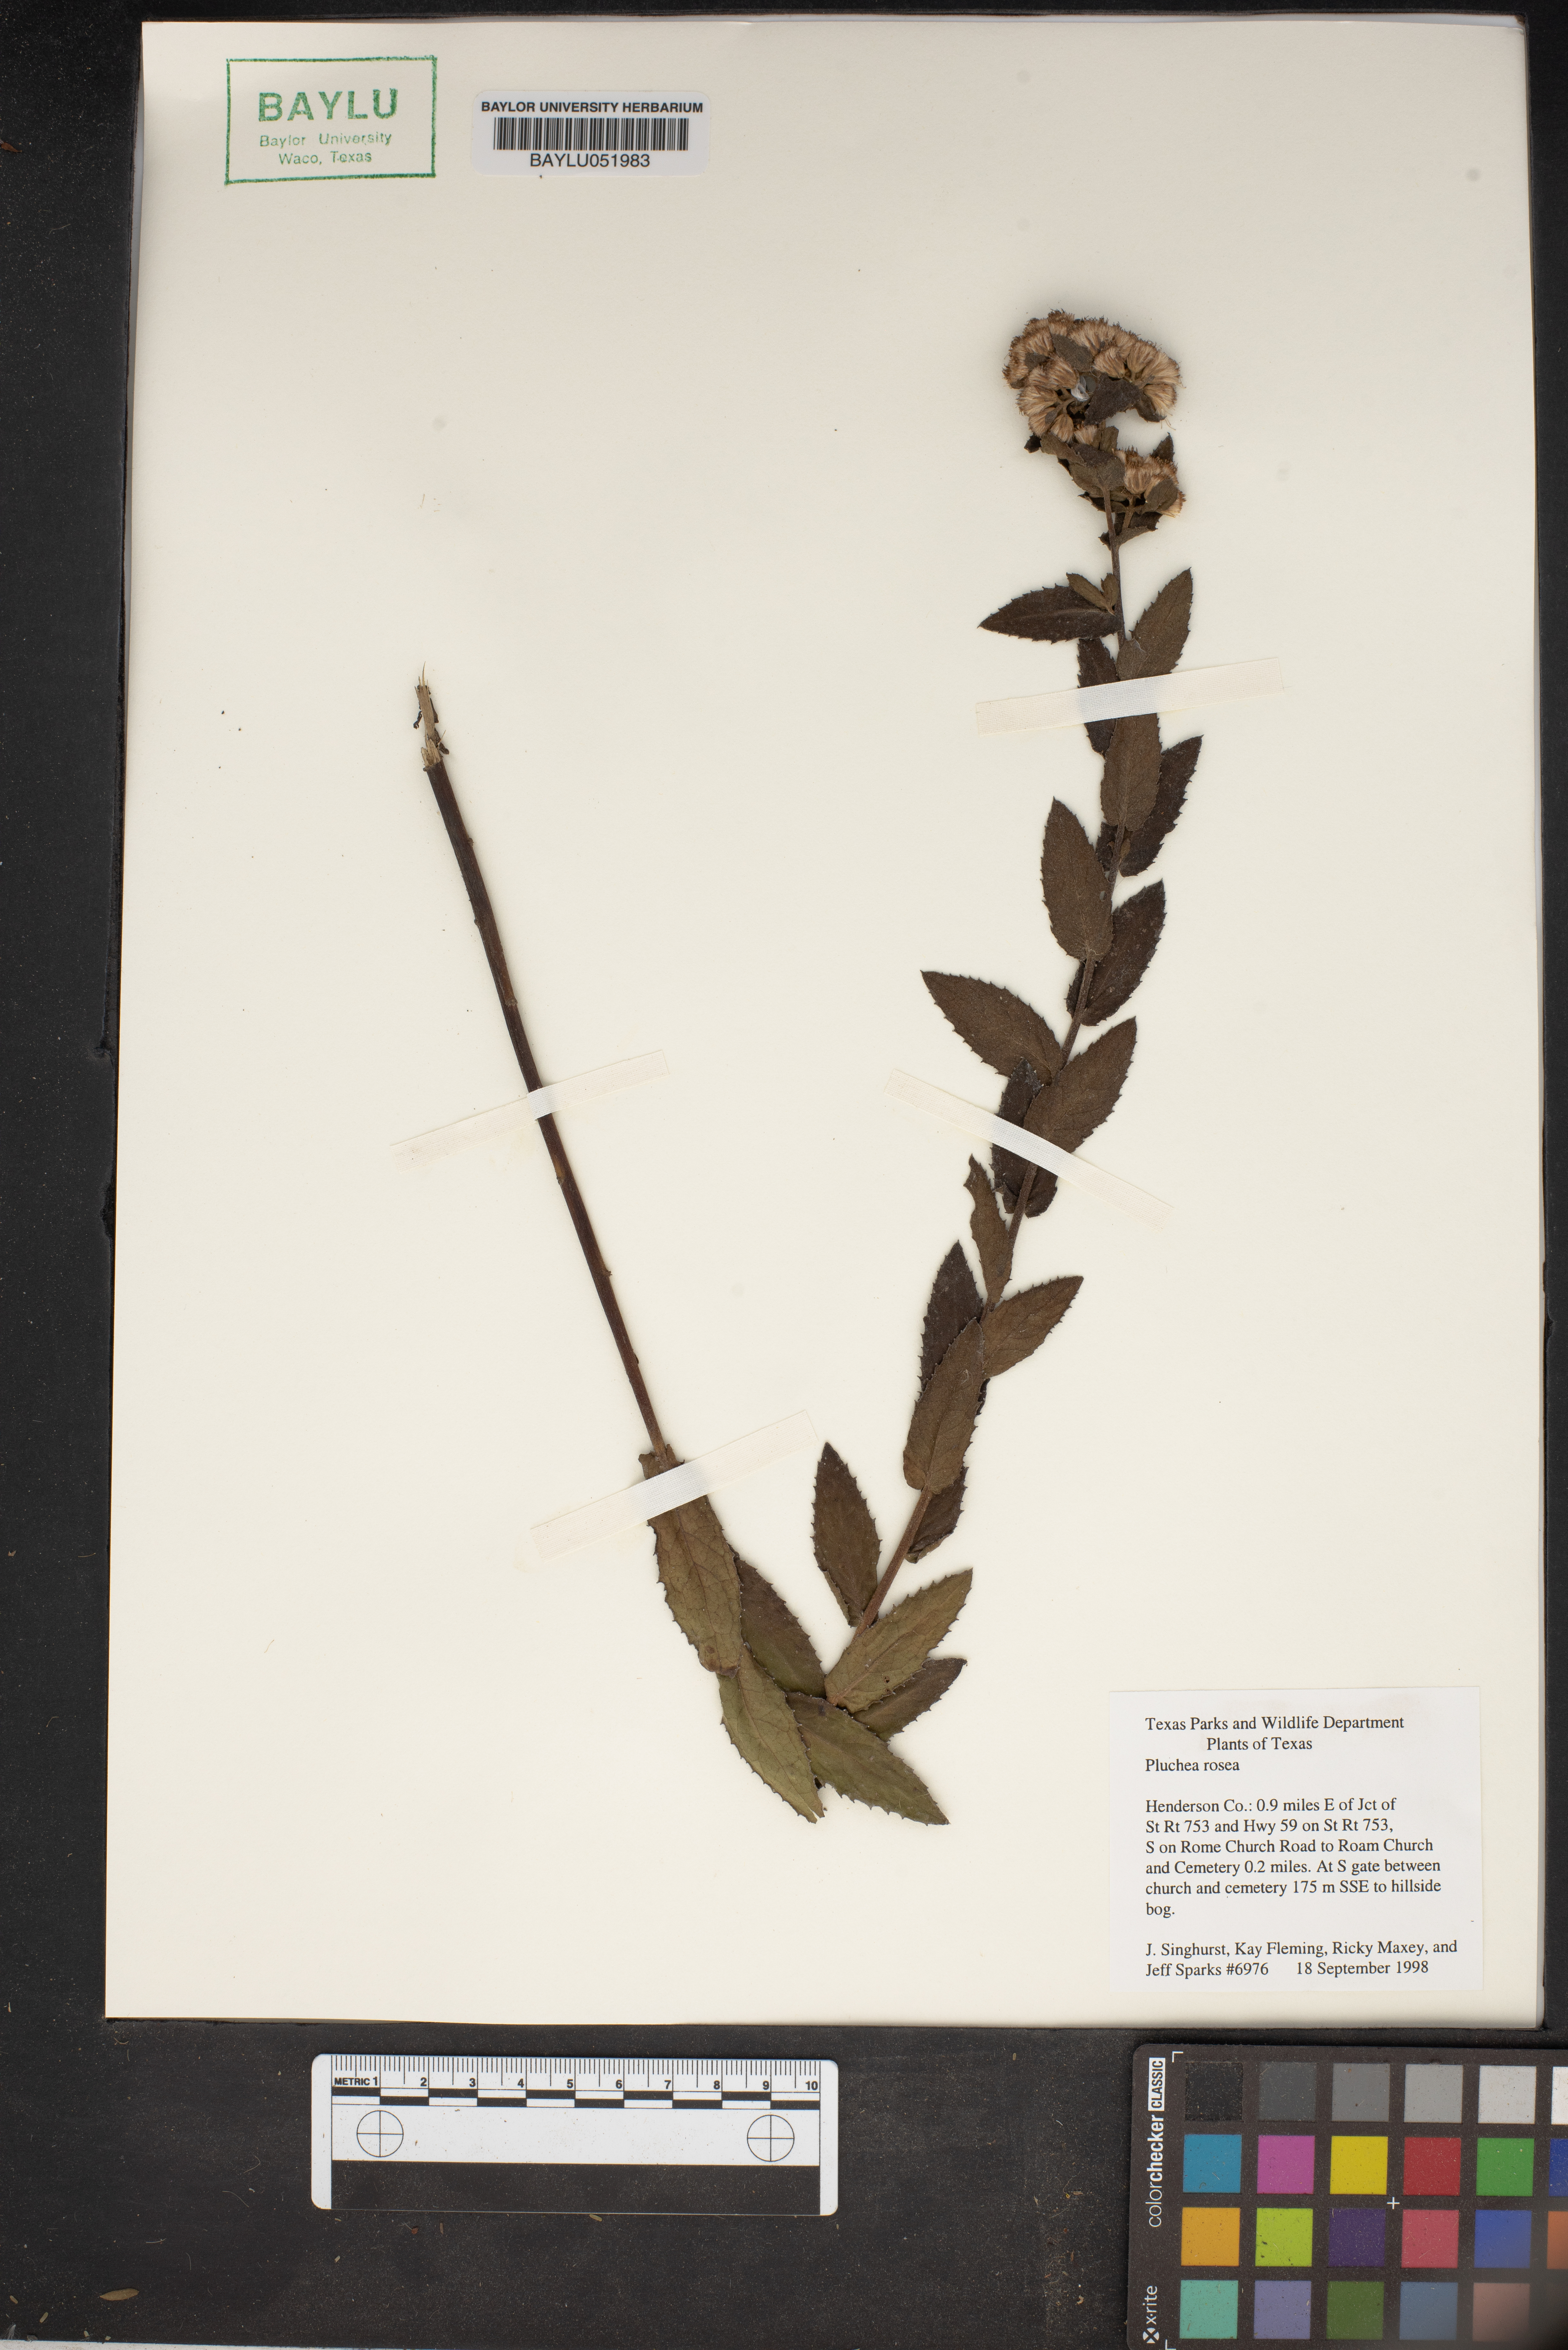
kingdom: Plantae
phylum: Tracheophyta
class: Magnoliopsida
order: Asterales
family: Asteraceae
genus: Pluchea
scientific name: Pluchea baccharis
